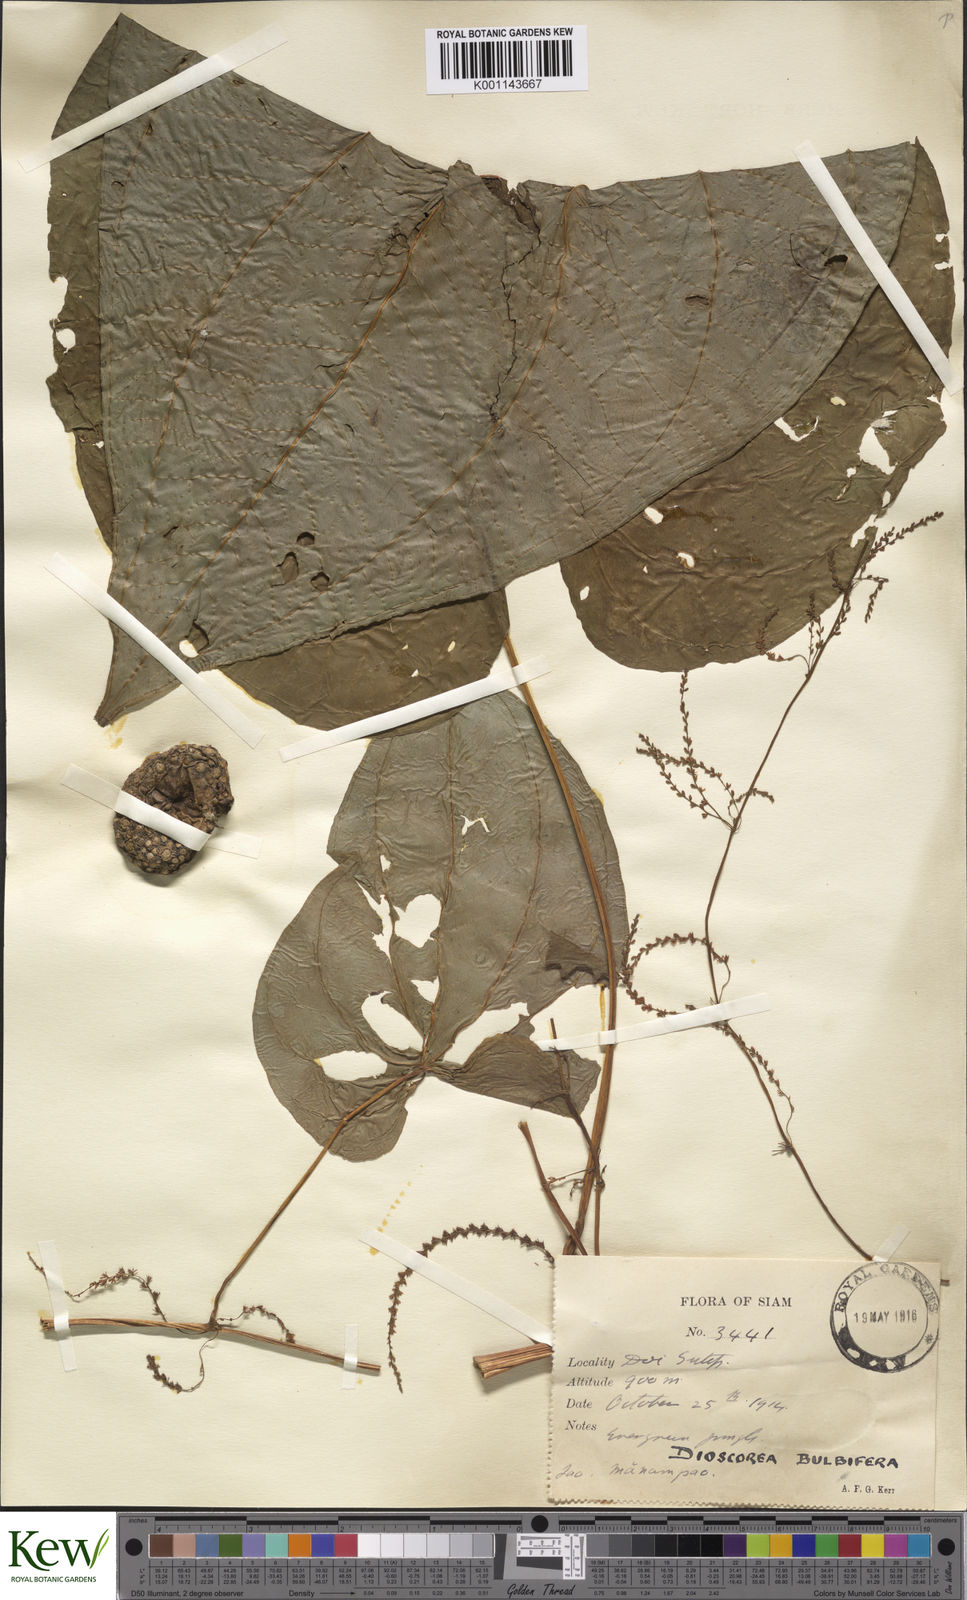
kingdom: Plantae
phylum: Tracheophyta
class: Liliopsida
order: Dioscoreales
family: Dioscoreaceae
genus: Dioscorea
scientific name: Dioscorea bulbifera
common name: Air yam
